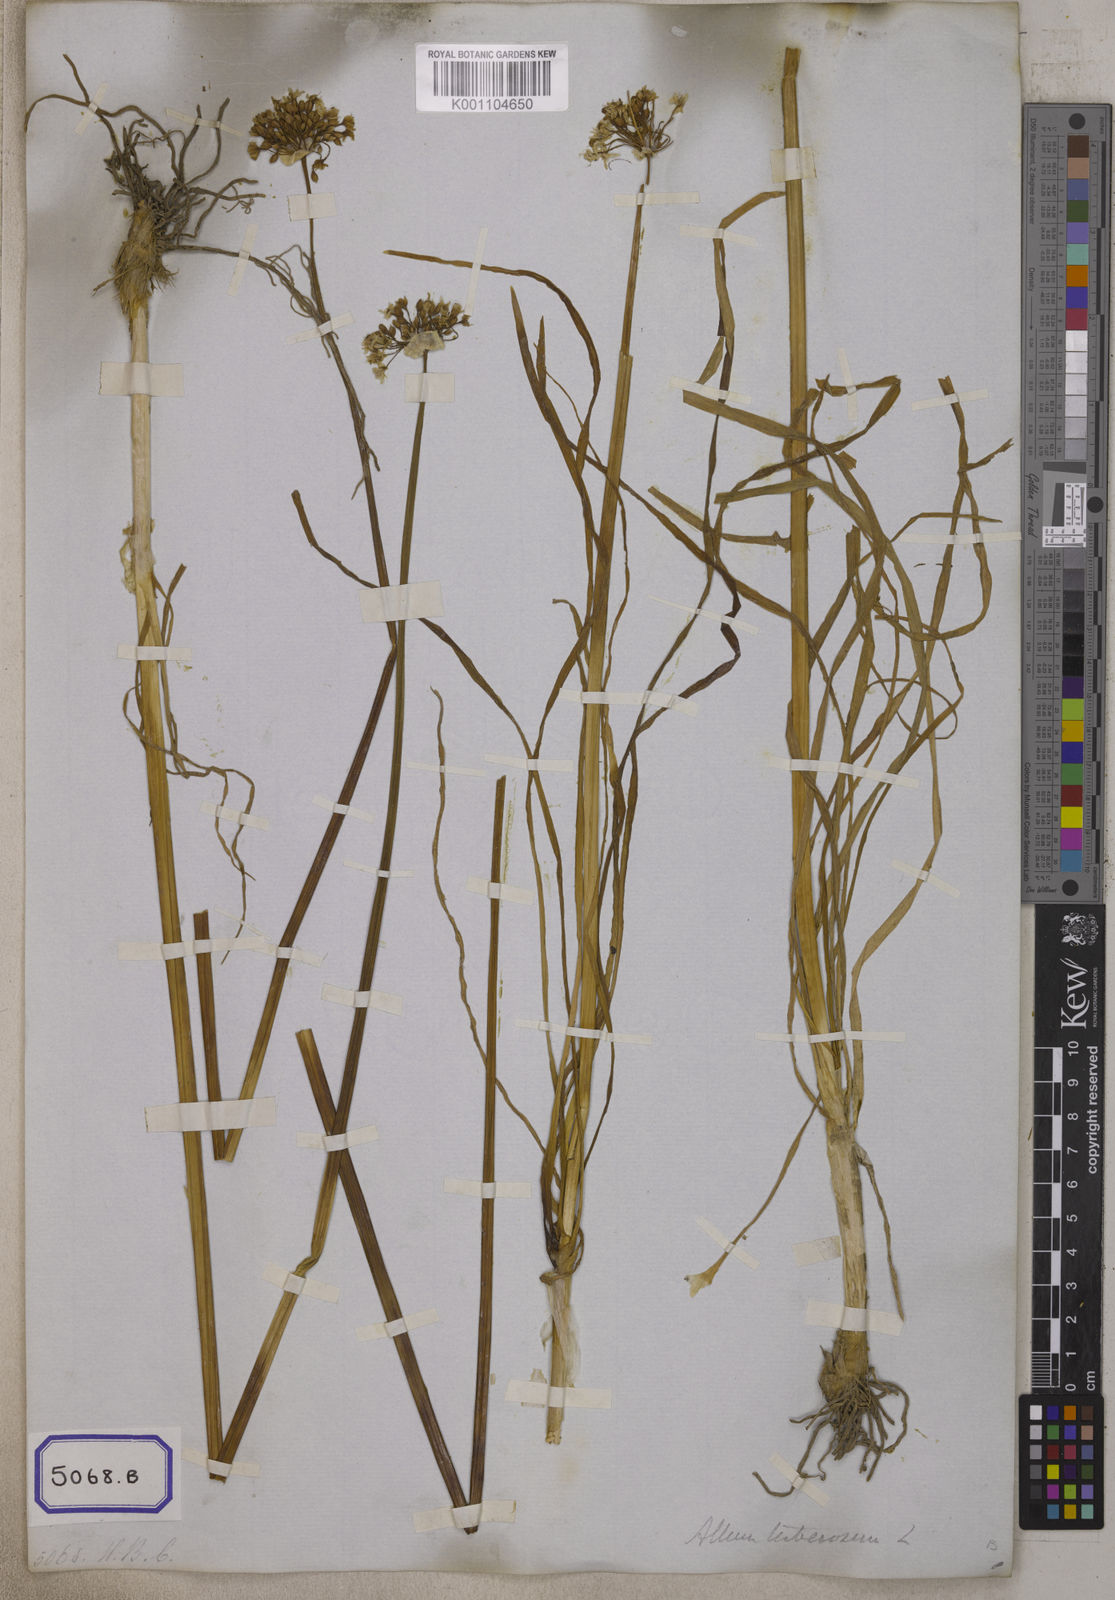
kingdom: Plantae
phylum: Tracheophyta
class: Liliopsida
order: Asparagales
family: Amaryllidaceae
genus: Allium
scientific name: Allium tuberosum
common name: Chinese chives
